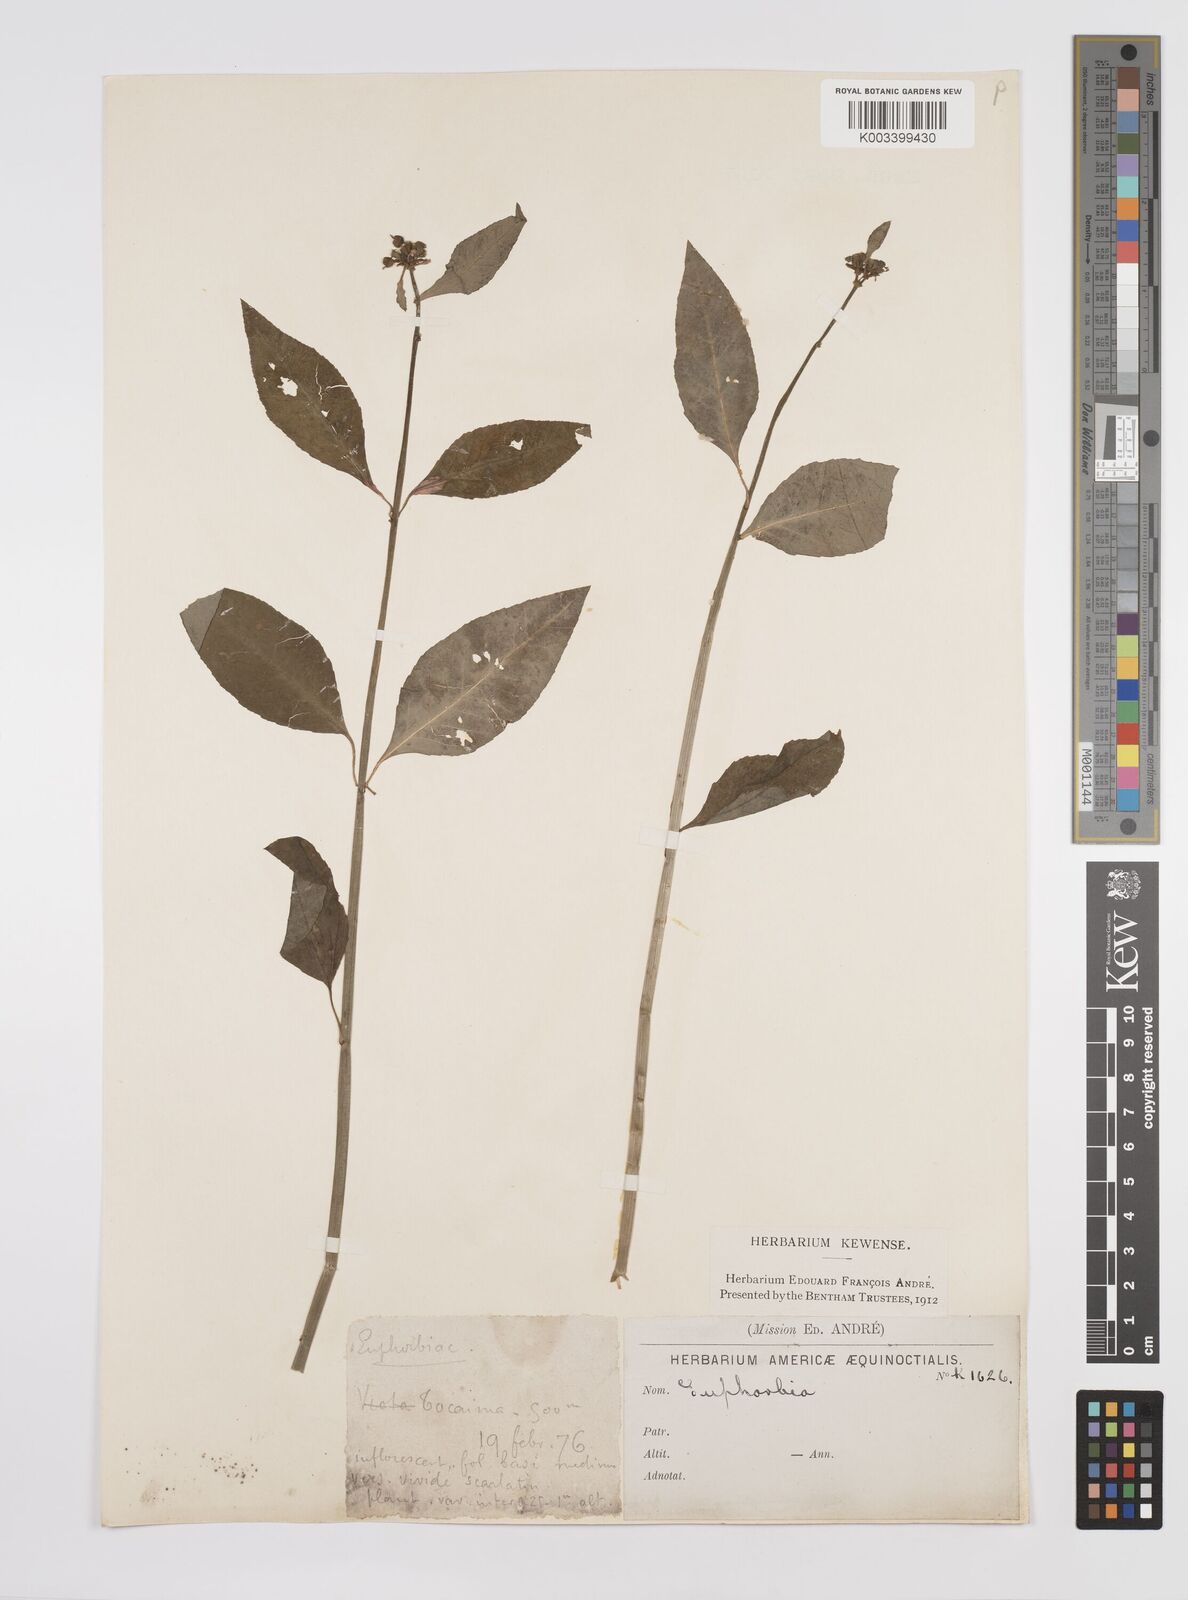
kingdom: Plantae
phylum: Tracheophyta
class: Magnoliopsida
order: Malpighiales
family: Euphorbiaceae
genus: Euphorbia
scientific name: Euphorbia
